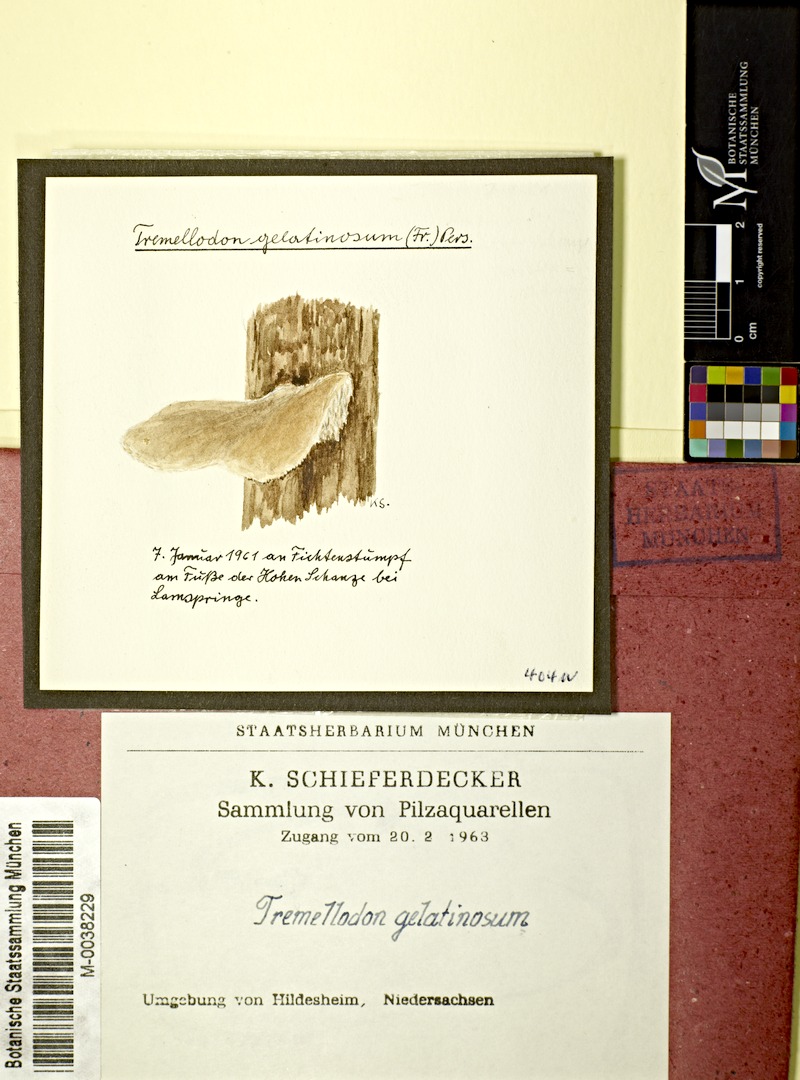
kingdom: Fungi
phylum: Basidiomycota
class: Agaricomycetes
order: Auriculariales
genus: Pseudohydnum
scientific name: Pseudohydnum gelatinosum
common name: Jelly tongue
